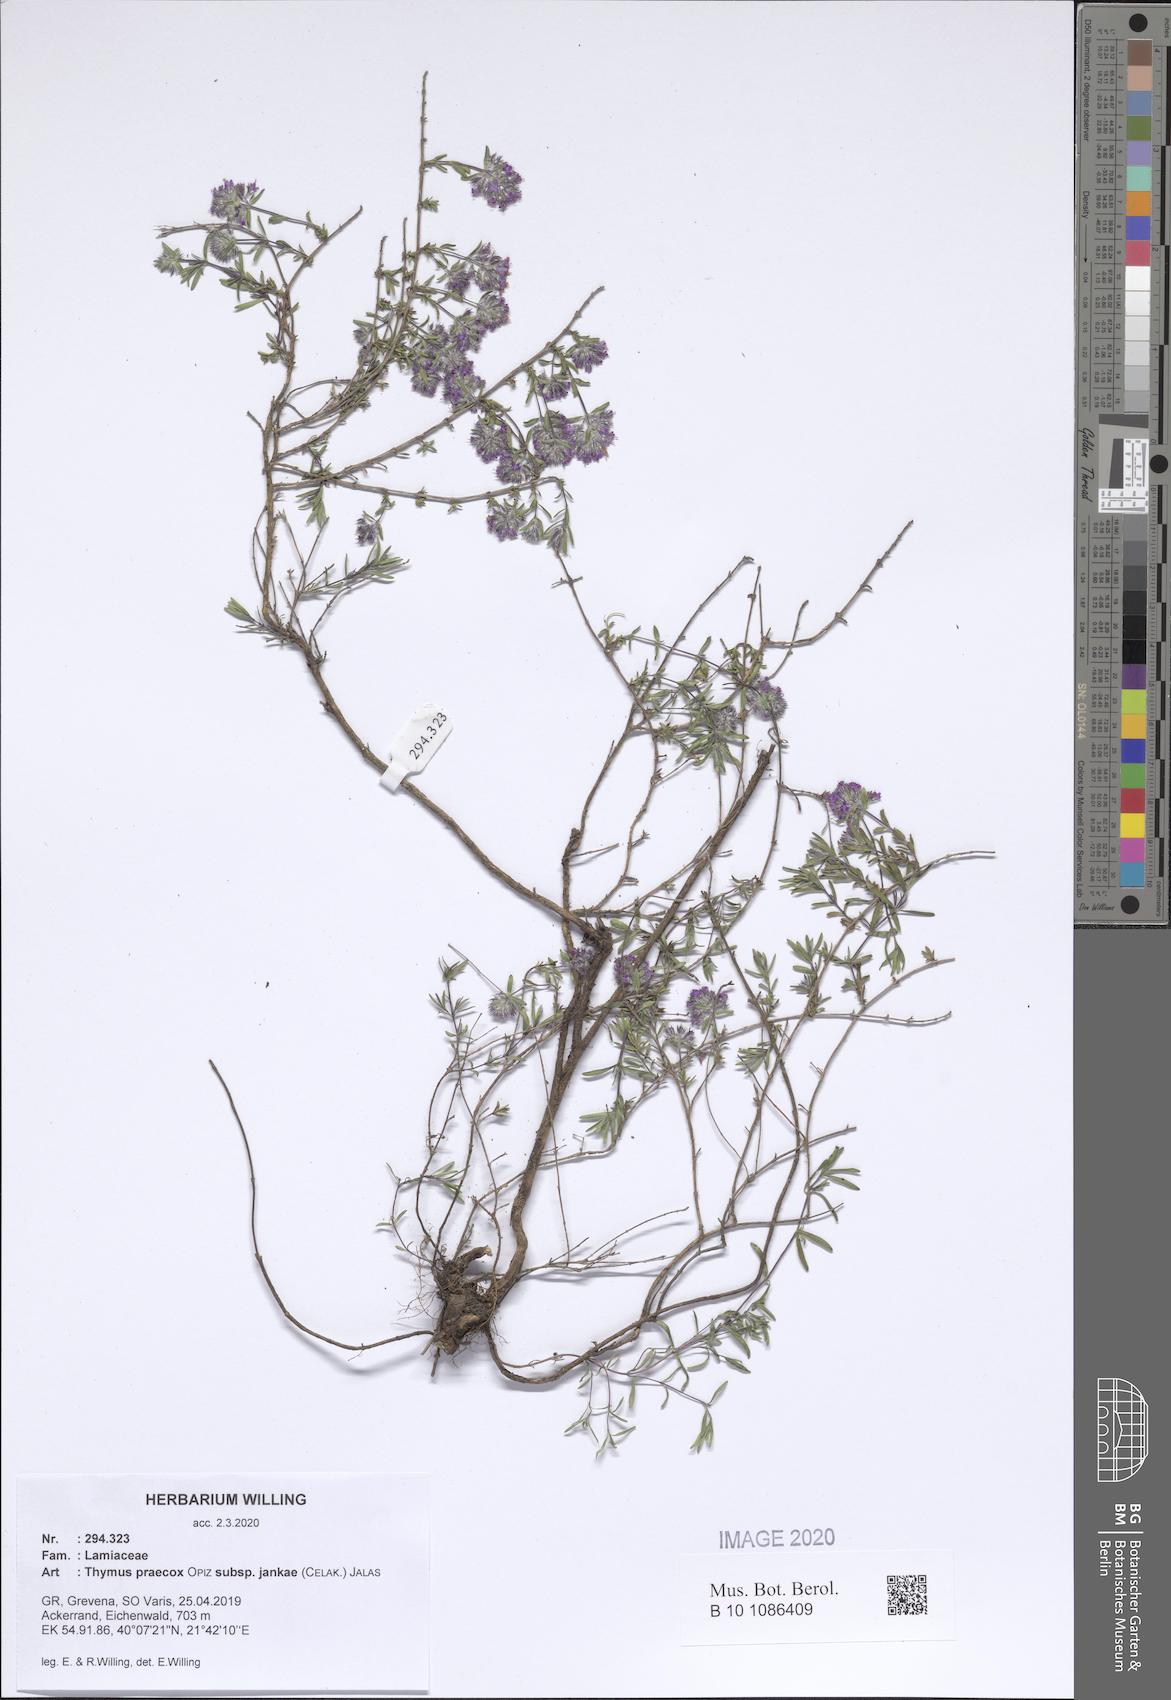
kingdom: Plantae
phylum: Tracheophyta
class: Magnoliopsida
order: Lamiales
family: Lamiaceae
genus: Thymus
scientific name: Thymus jankae
